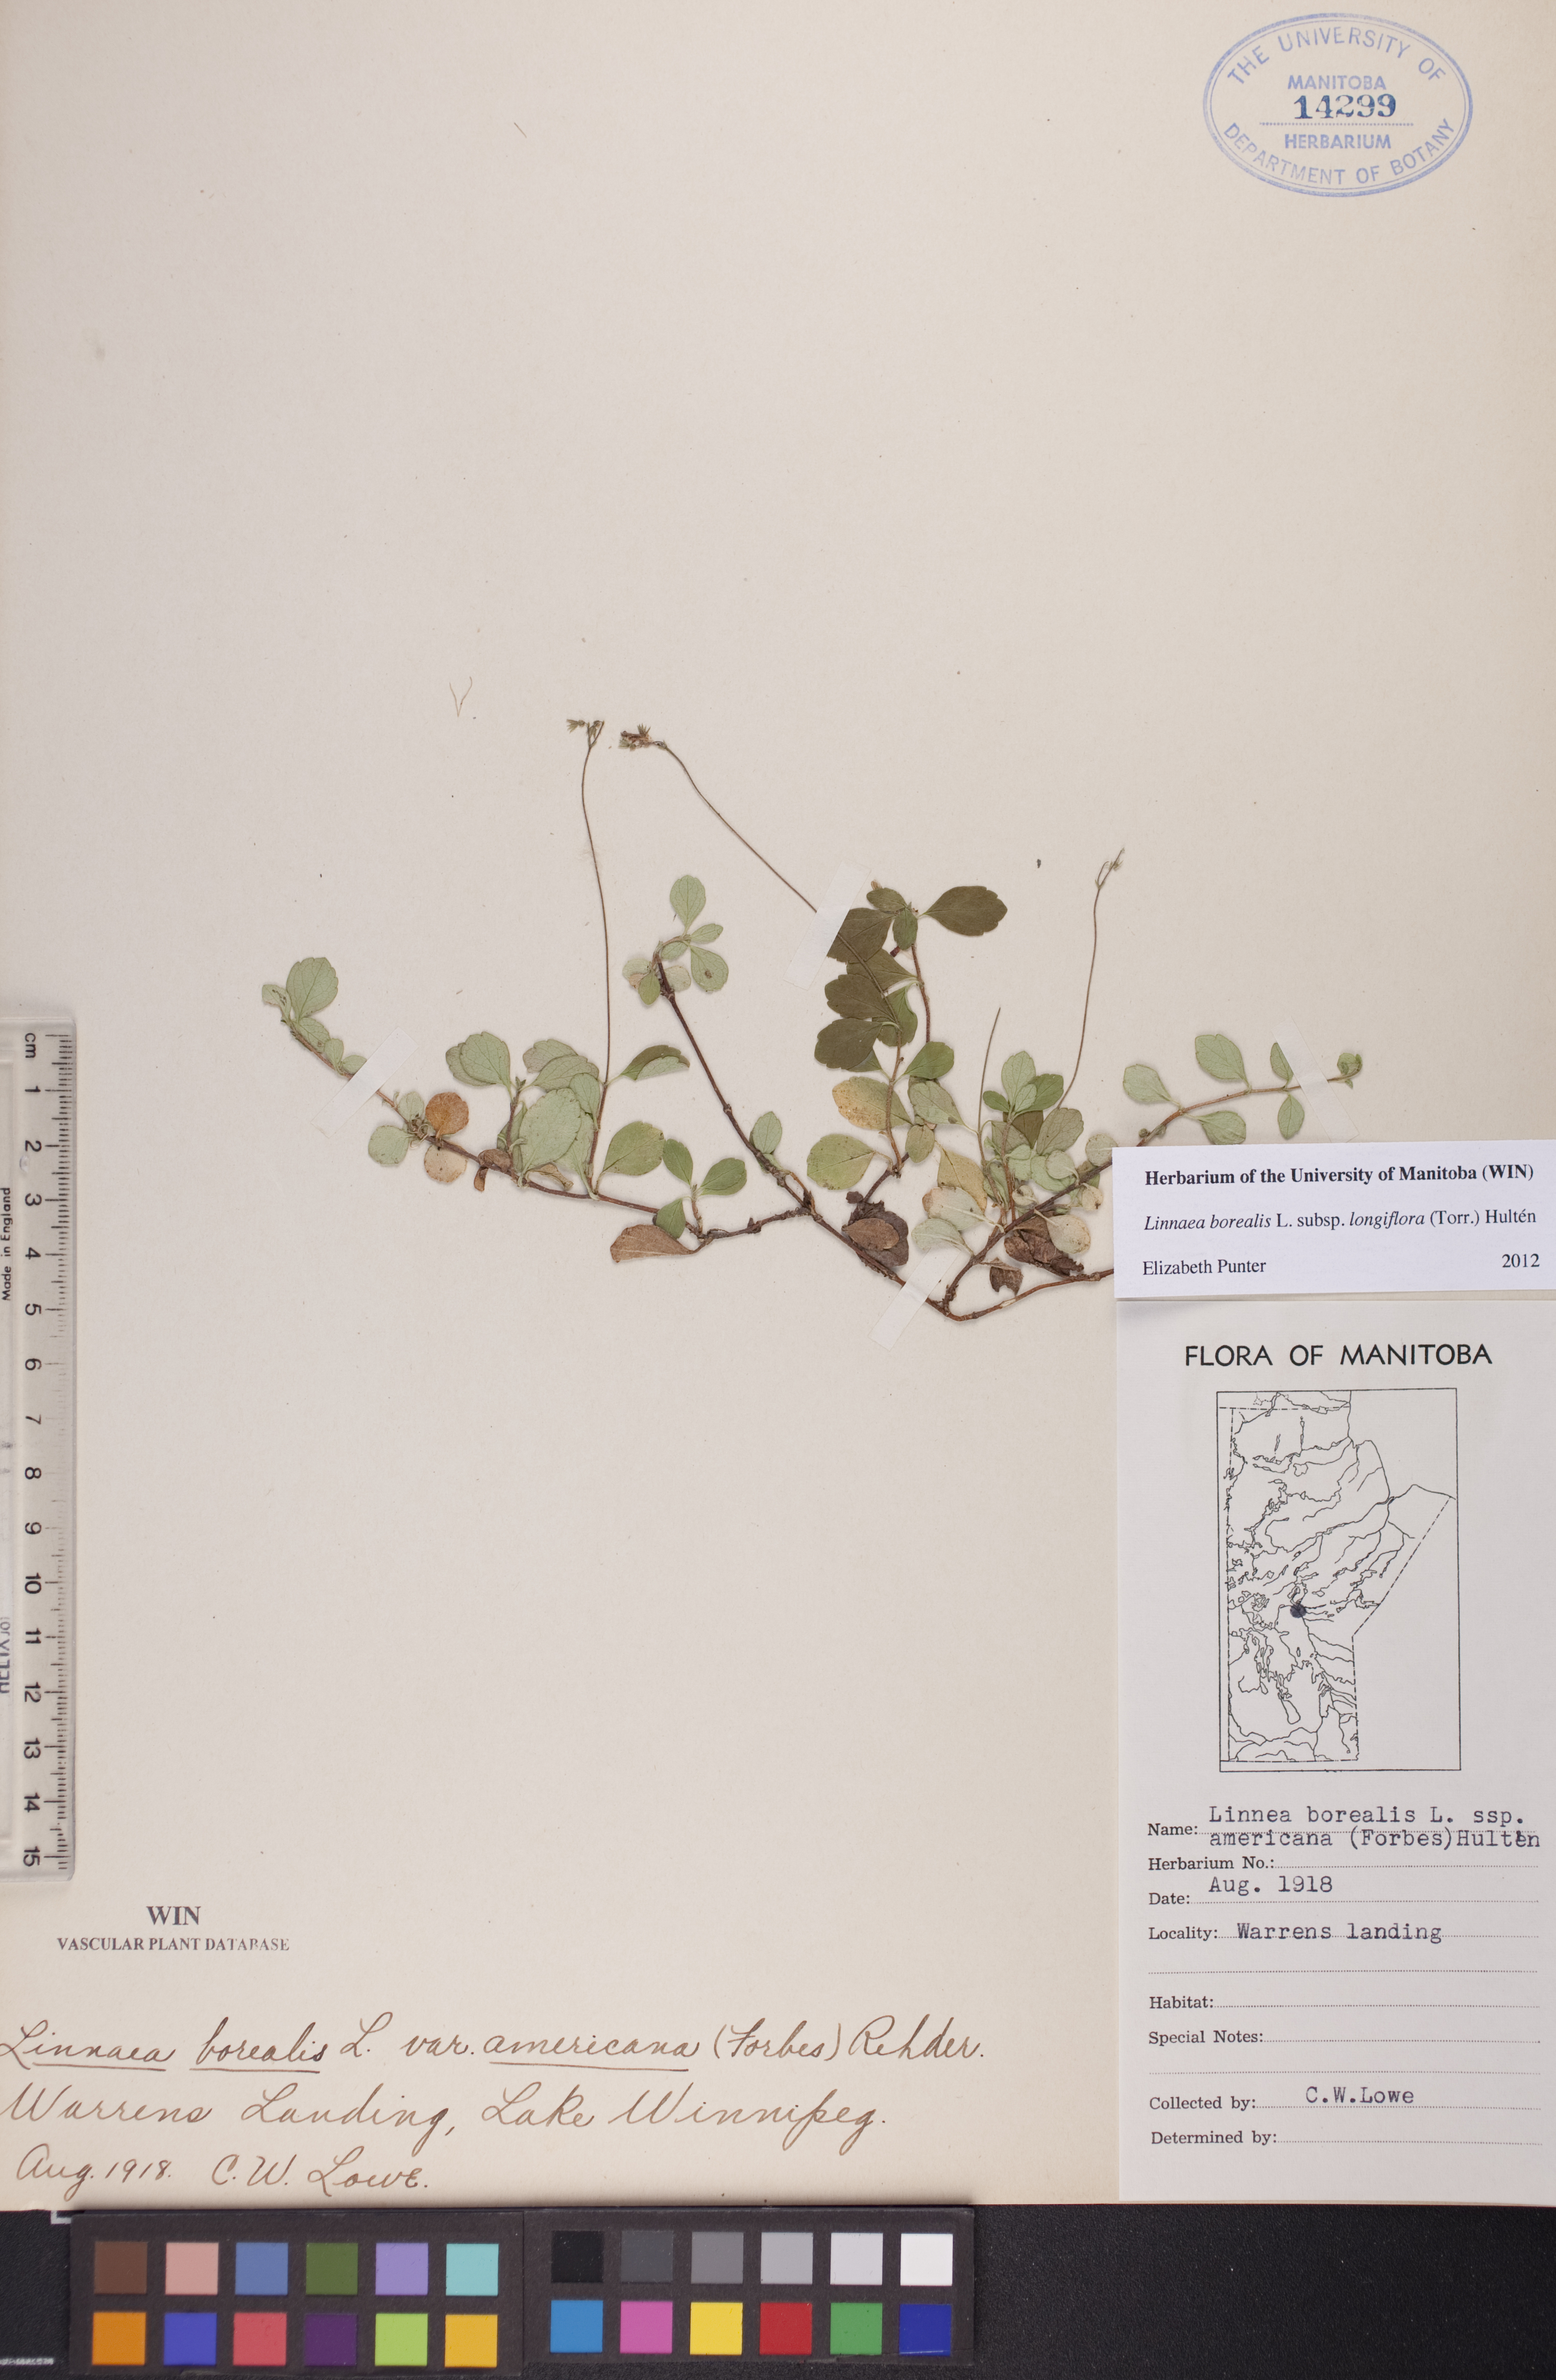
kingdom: Plantae
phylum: Tracheophyta
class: Magnoliopsida
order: Dipsacales
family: Caprifoliaceae
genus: Linnaea
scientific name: Linnaea borealis
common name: Twinflower
